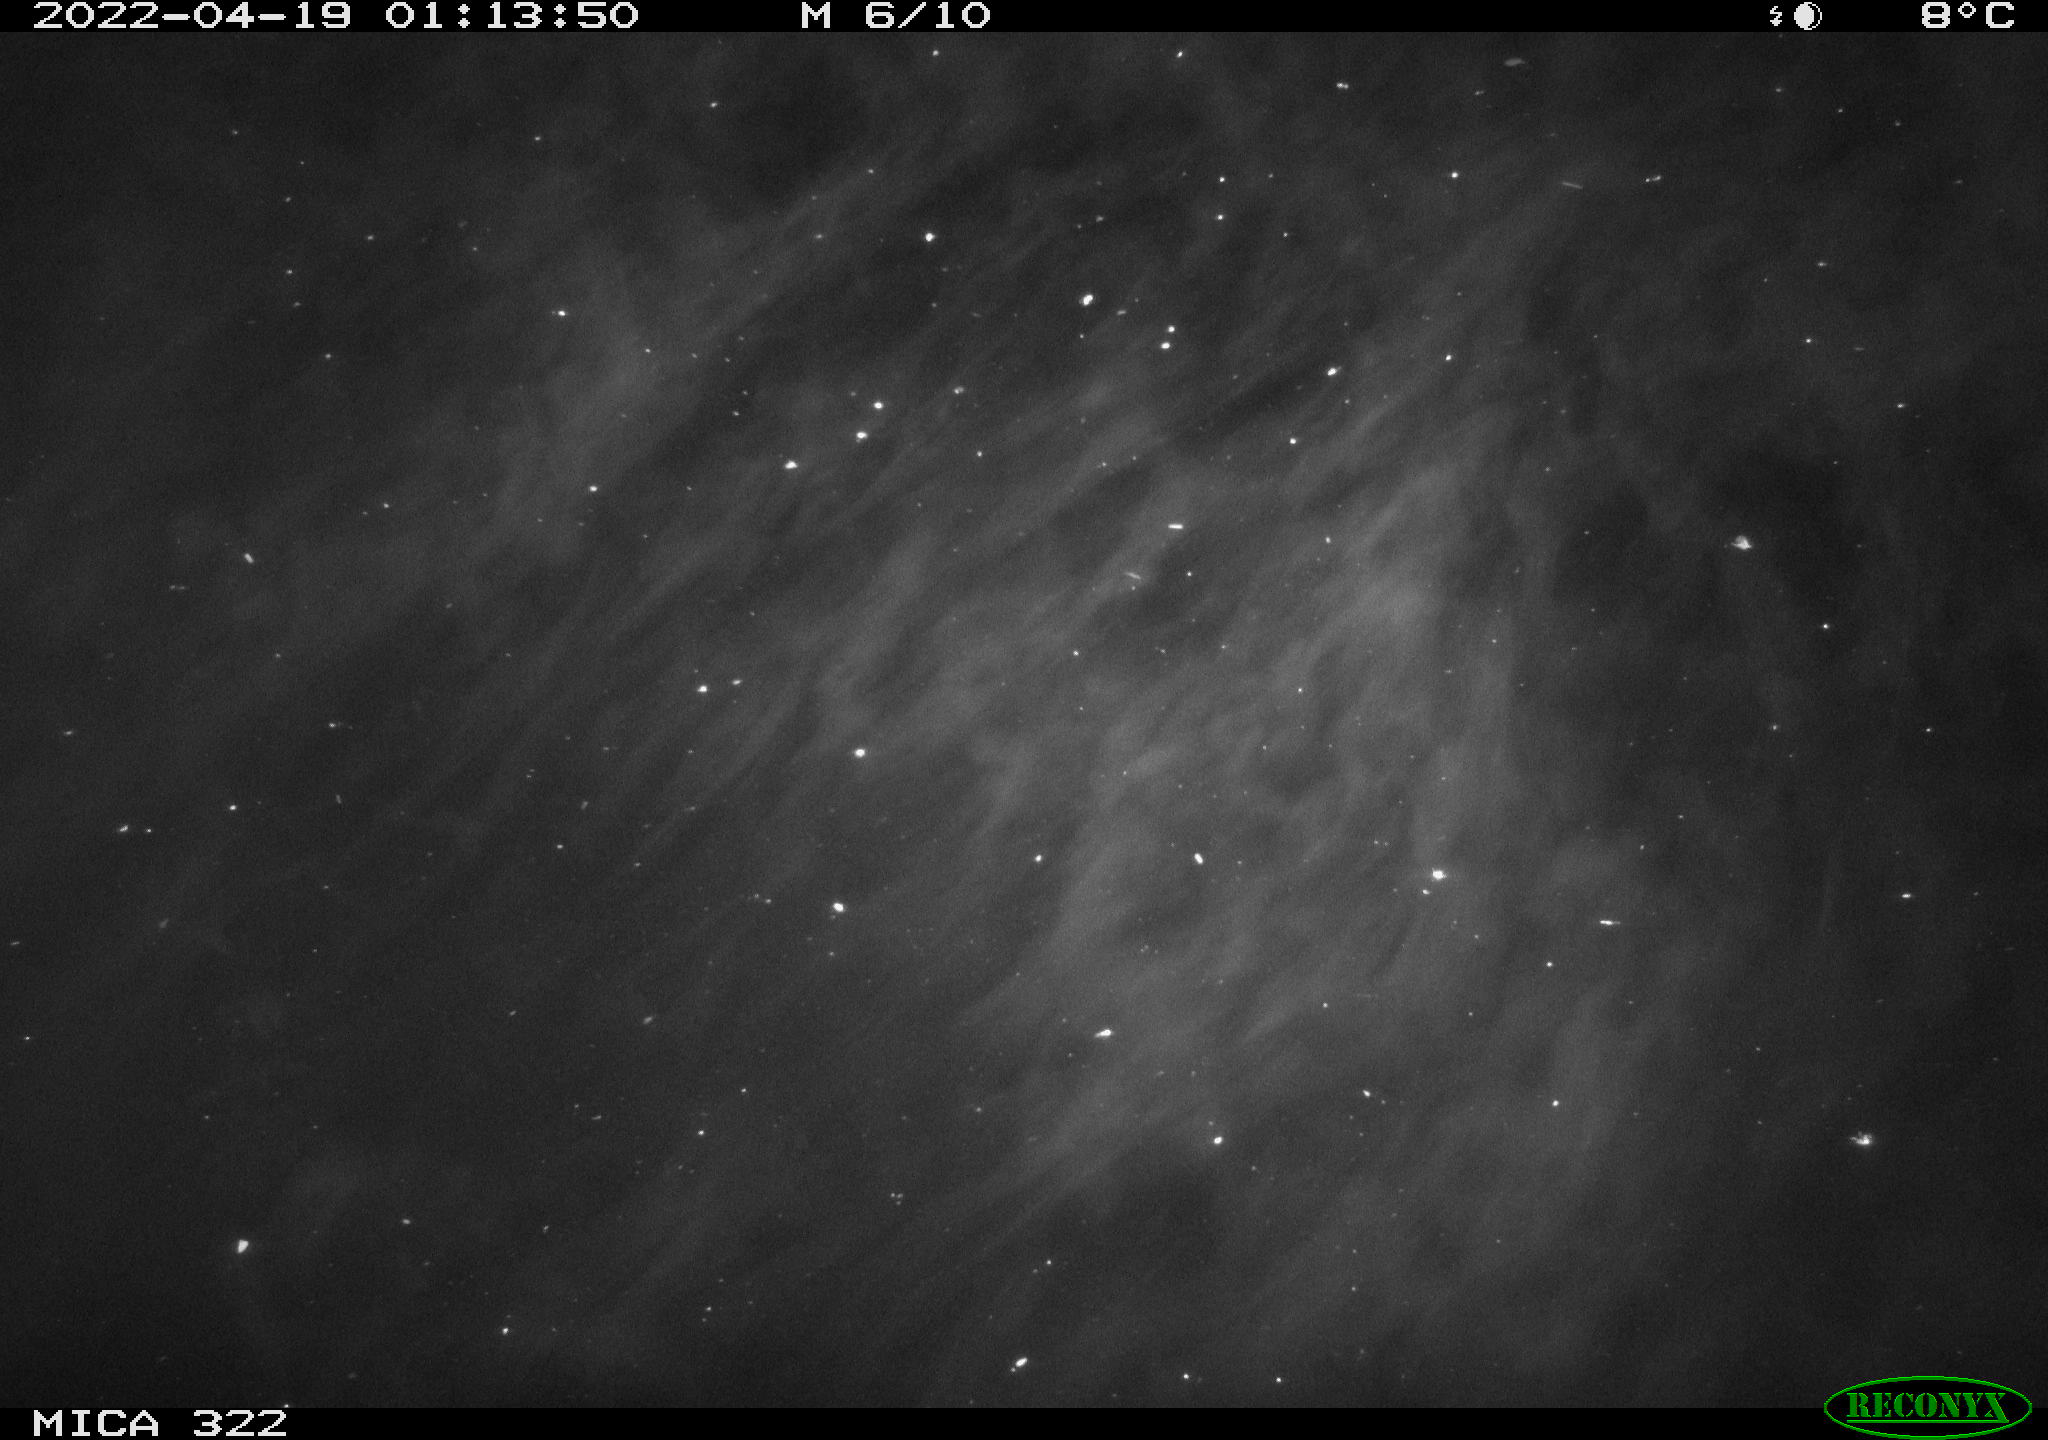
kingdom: Animalia
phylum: Chordata
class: Aves
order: Anseriformes
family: Anatidae
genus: Anas
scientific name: Anas platyrhynchos
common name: Mallard
